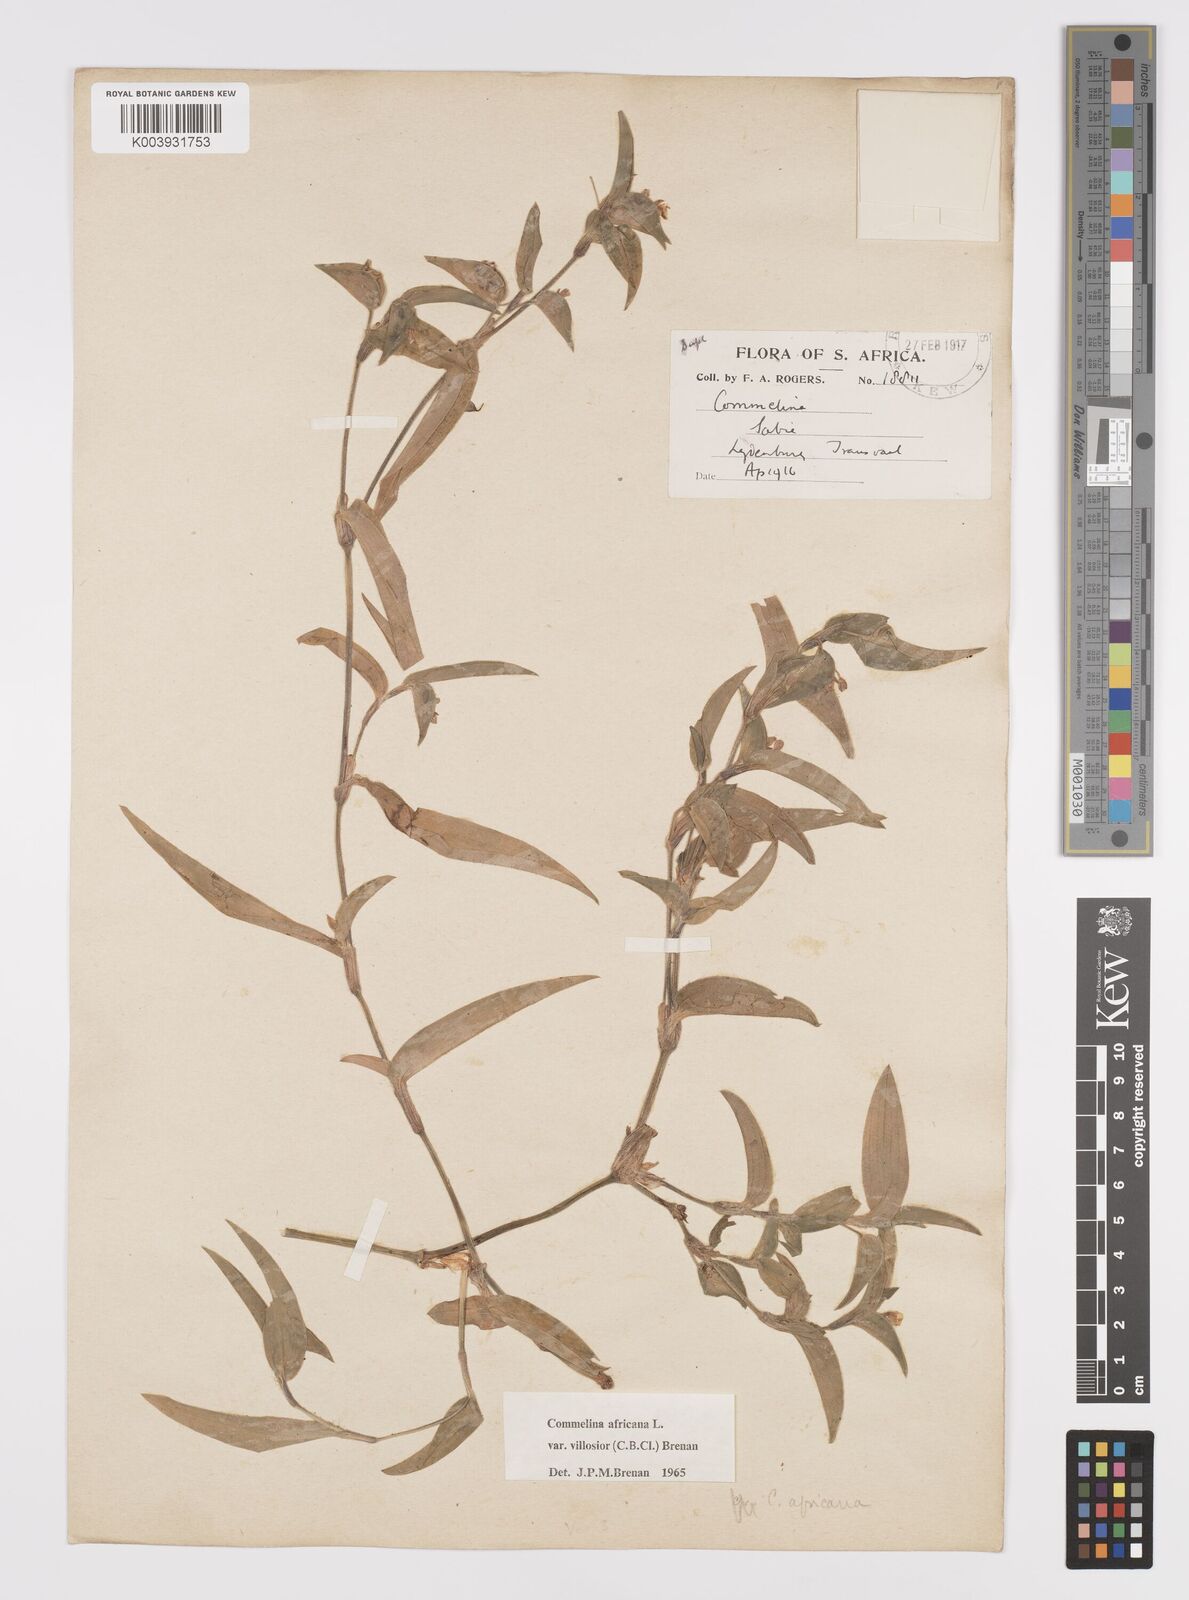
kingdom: Plantae
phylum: Tracheophyta
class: Liliopsida
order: Commelinales
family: Commelinaceae
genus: Commelina
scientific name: Commelina africana
